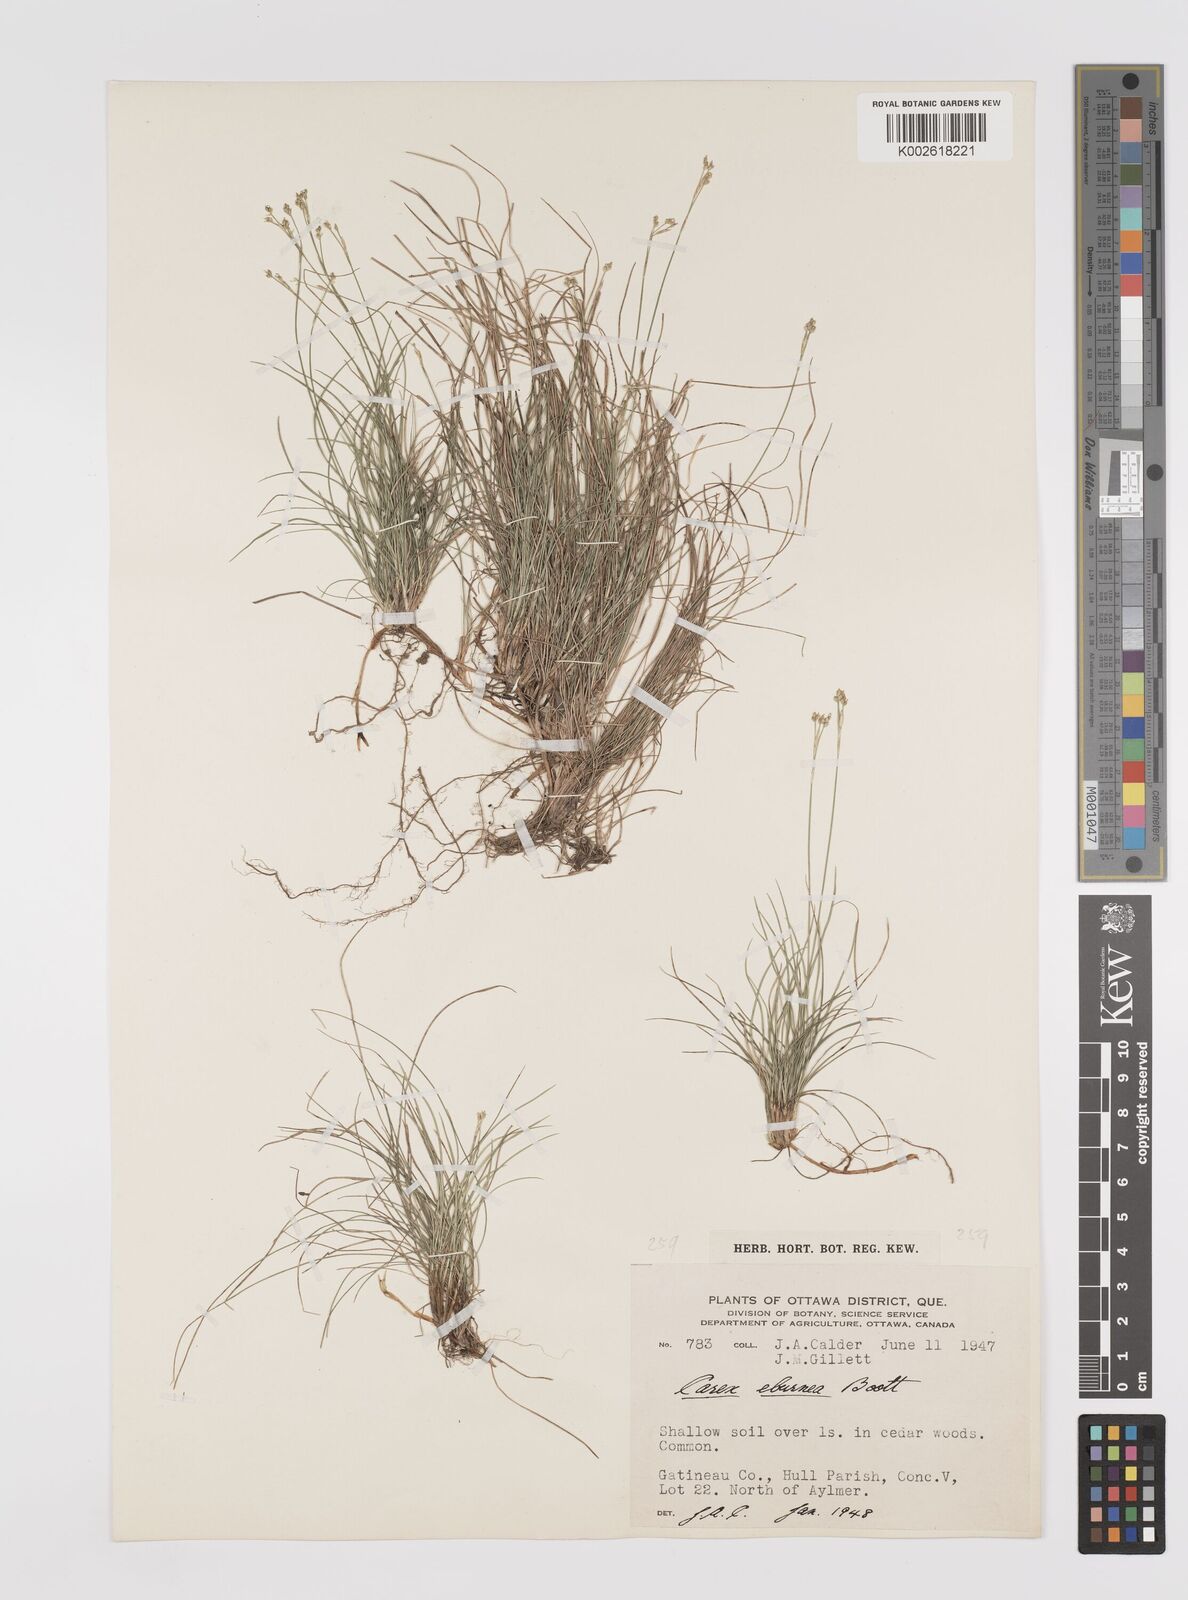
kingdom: Plantae
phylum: Tracheophyta
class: Liliopsida
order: Poales
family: Cyperaceae
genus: Carex
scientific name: Carex eburnea
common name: Bristle-leaved sedge
